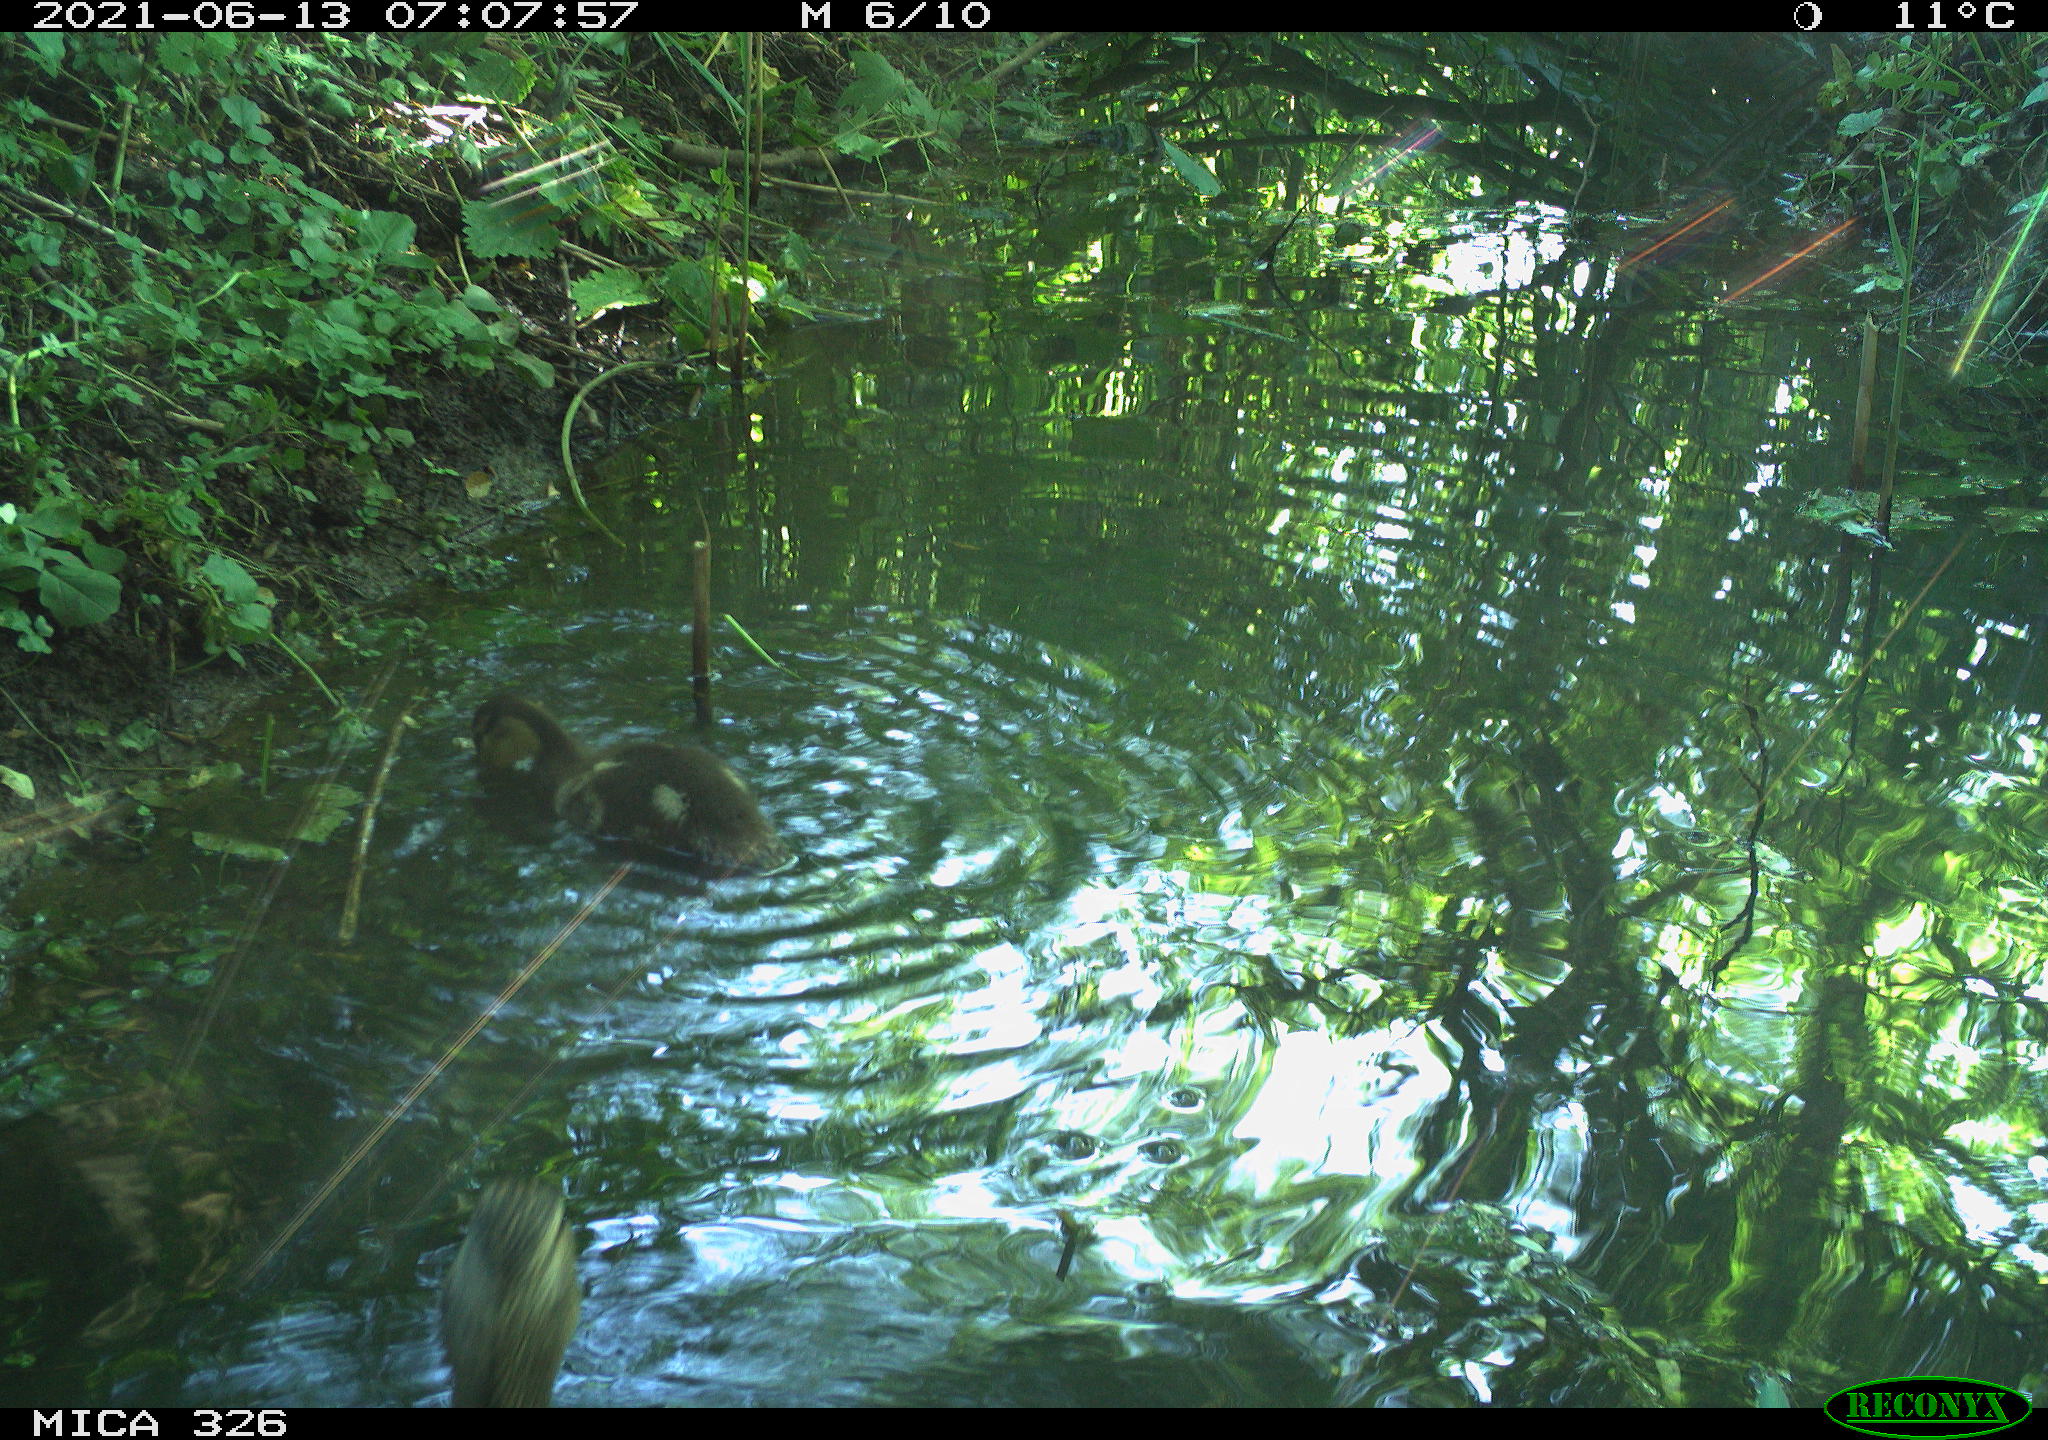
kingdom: Animalia
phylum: Chordata
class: Aves
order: Anseriformes
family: Anatidae
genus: Anas
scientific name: Anas platyrhynchos
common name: Mallard
